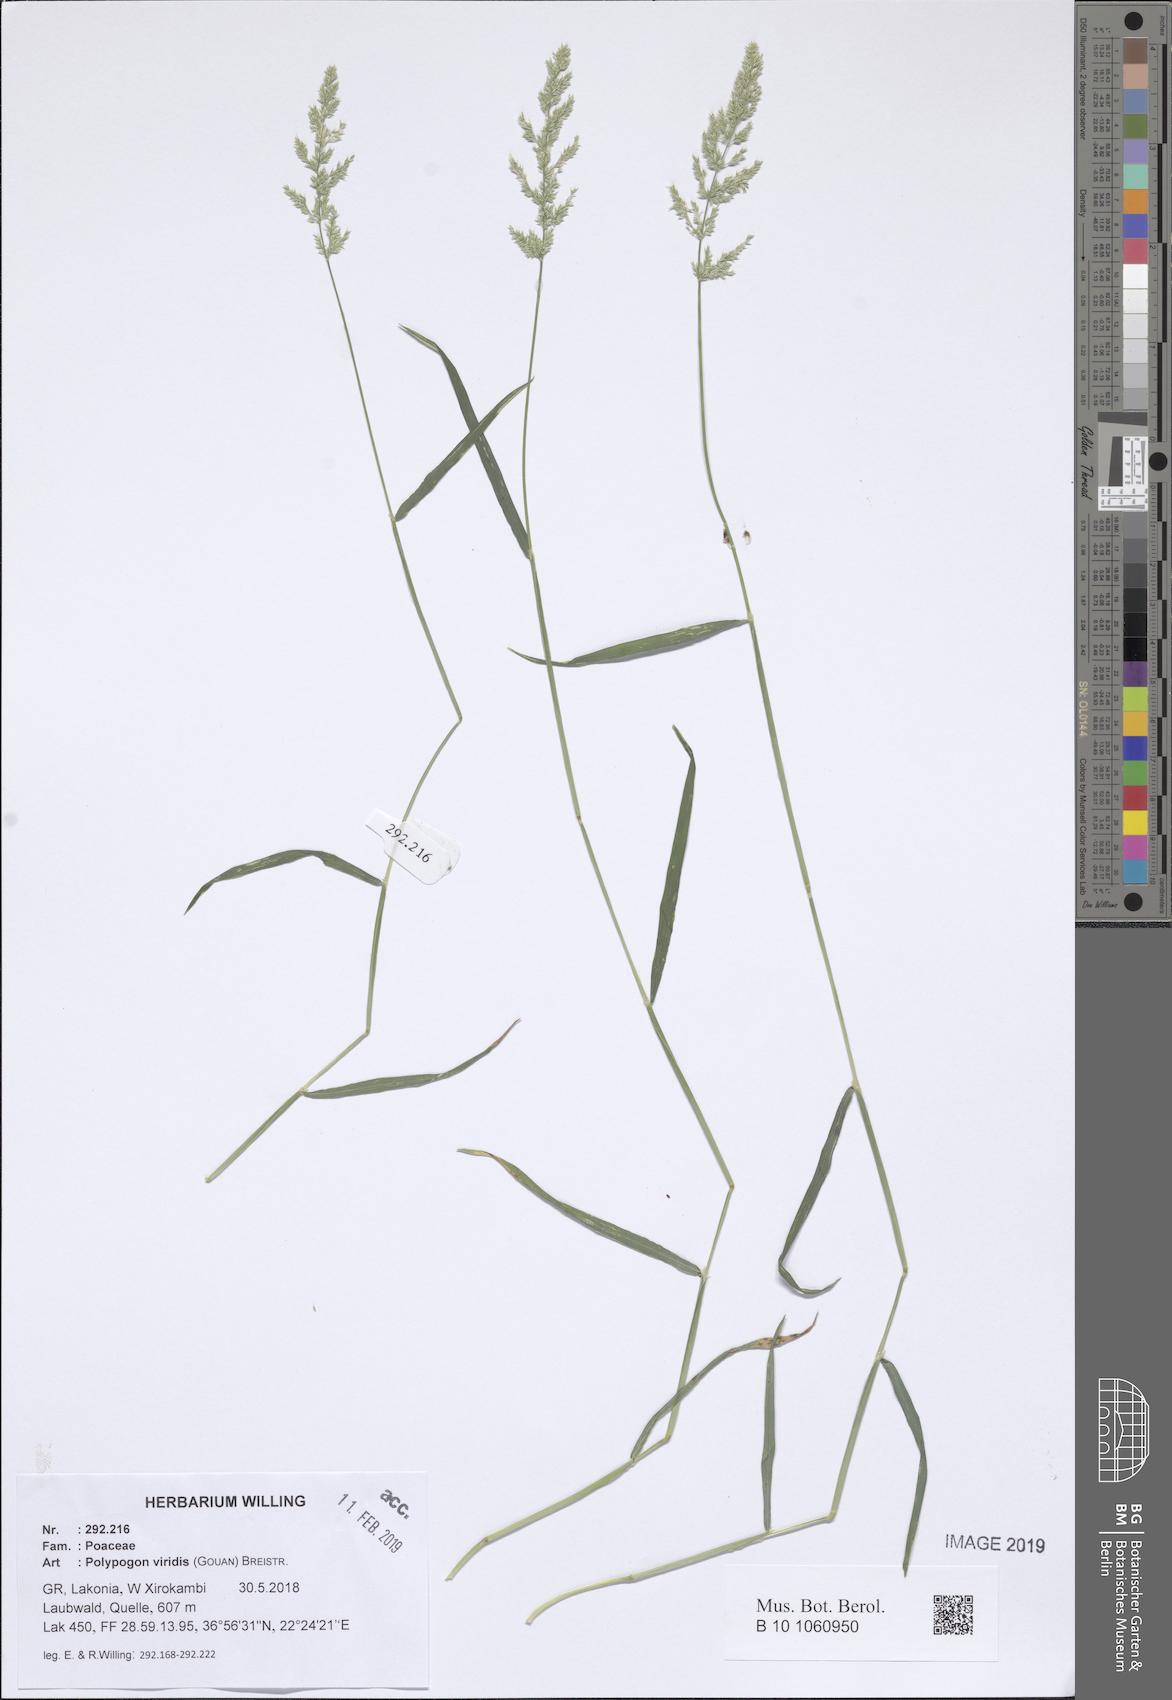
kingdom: Plantae
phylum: Tracheophyta
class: Liliopsida
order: Poales
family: Poaceae
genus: Polypogon
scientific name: Polypogon viridis
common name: Water bent
